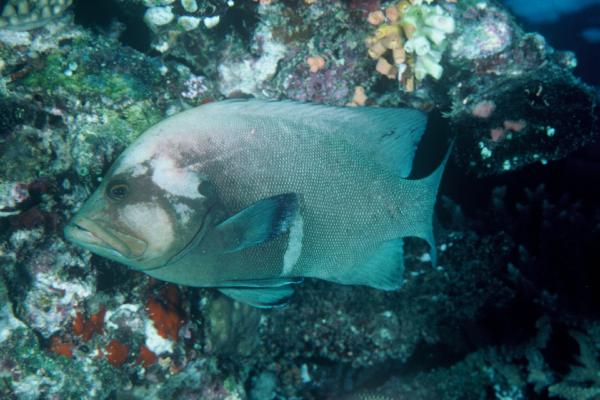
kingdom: Animalia
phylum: Chordata
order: Perciformes
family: Serranidae
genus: Aethaloperca
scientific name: Aethaloperca rogaa
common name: Redmouth grouper
